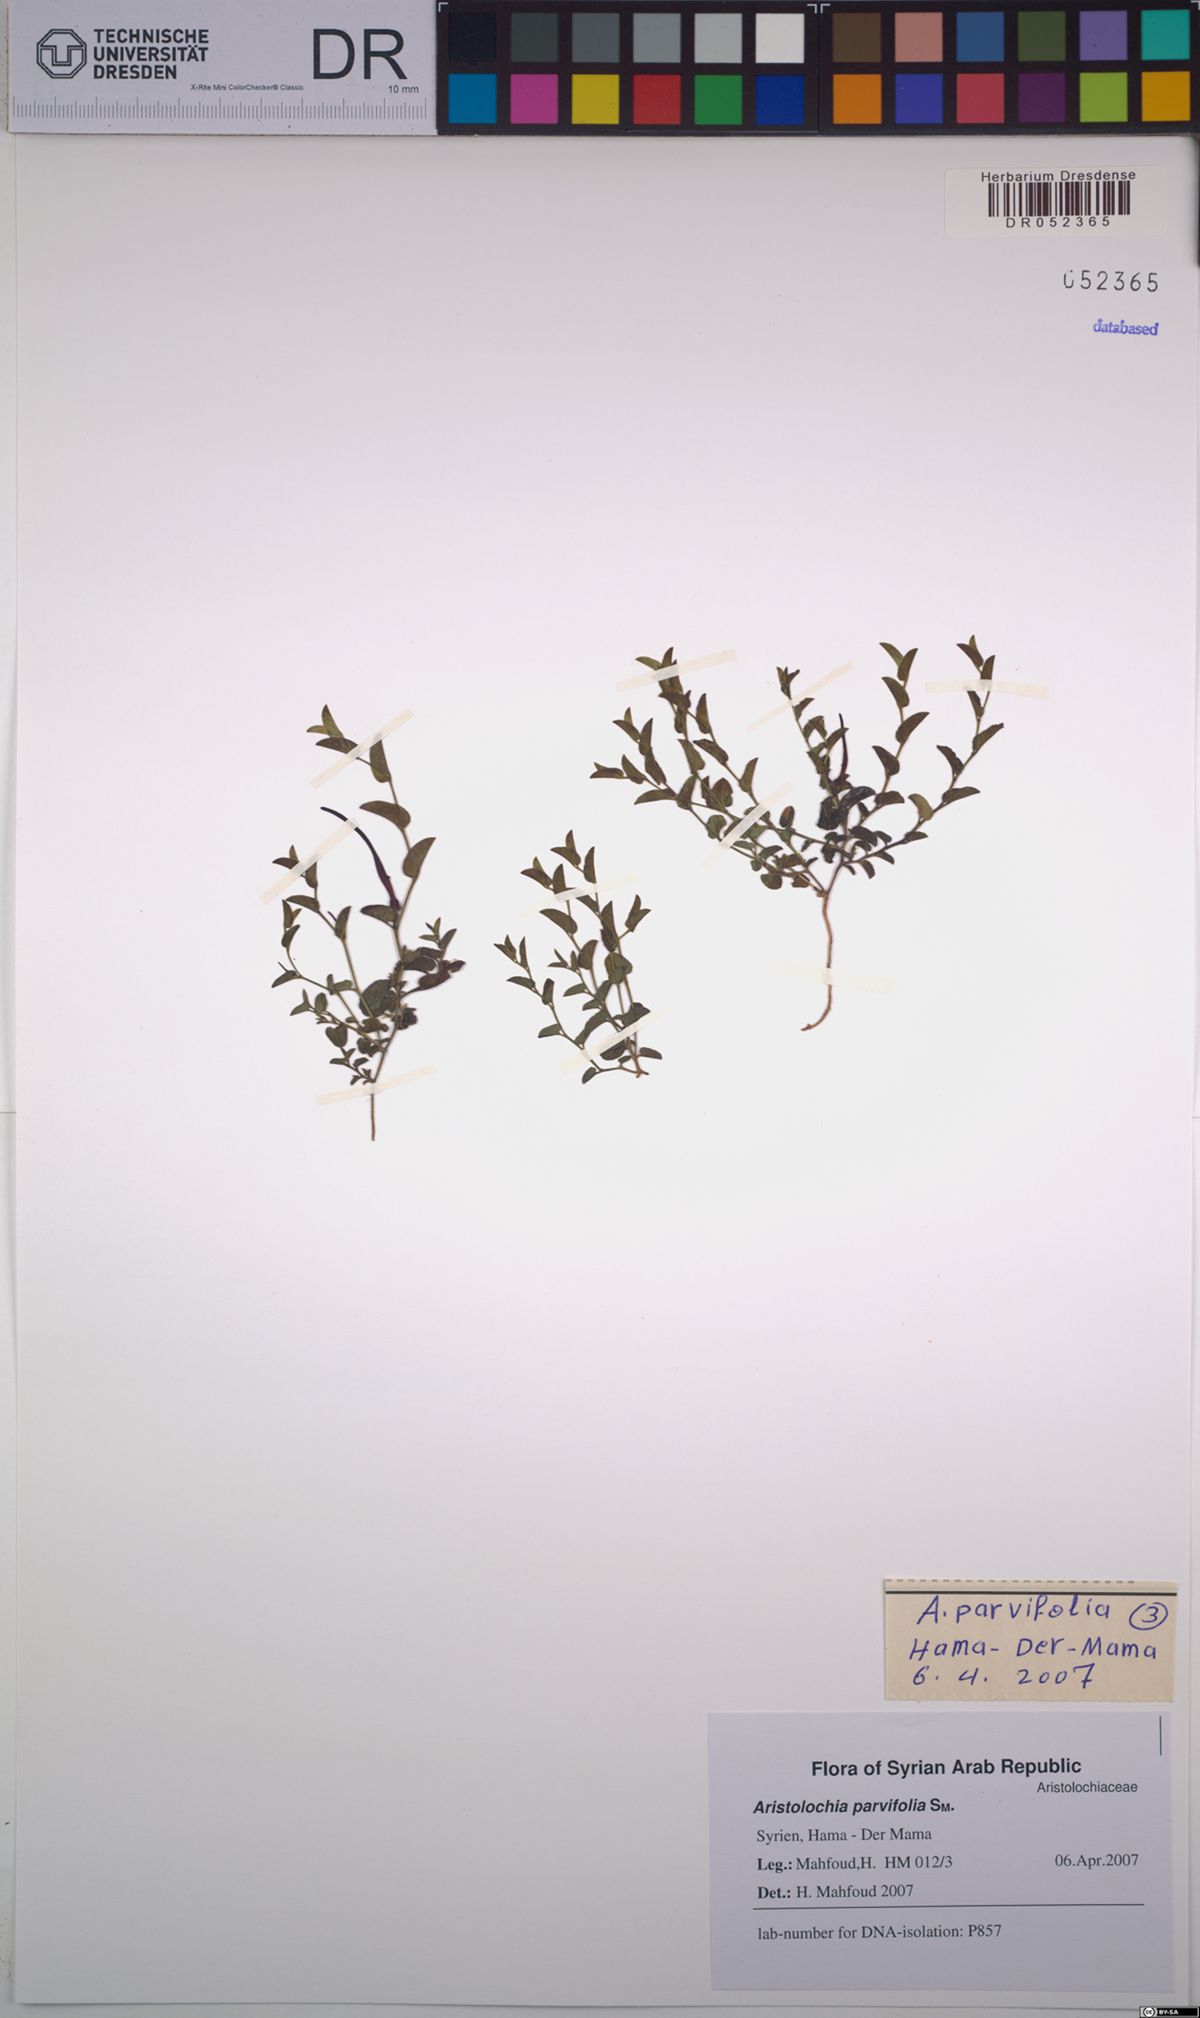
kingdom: Plantae
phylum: Tracheophyta
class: Magnoliopsida
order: Piperales
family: Aristolochiaceae
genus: Aristolochia
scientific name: Aristolochia parvifolia
